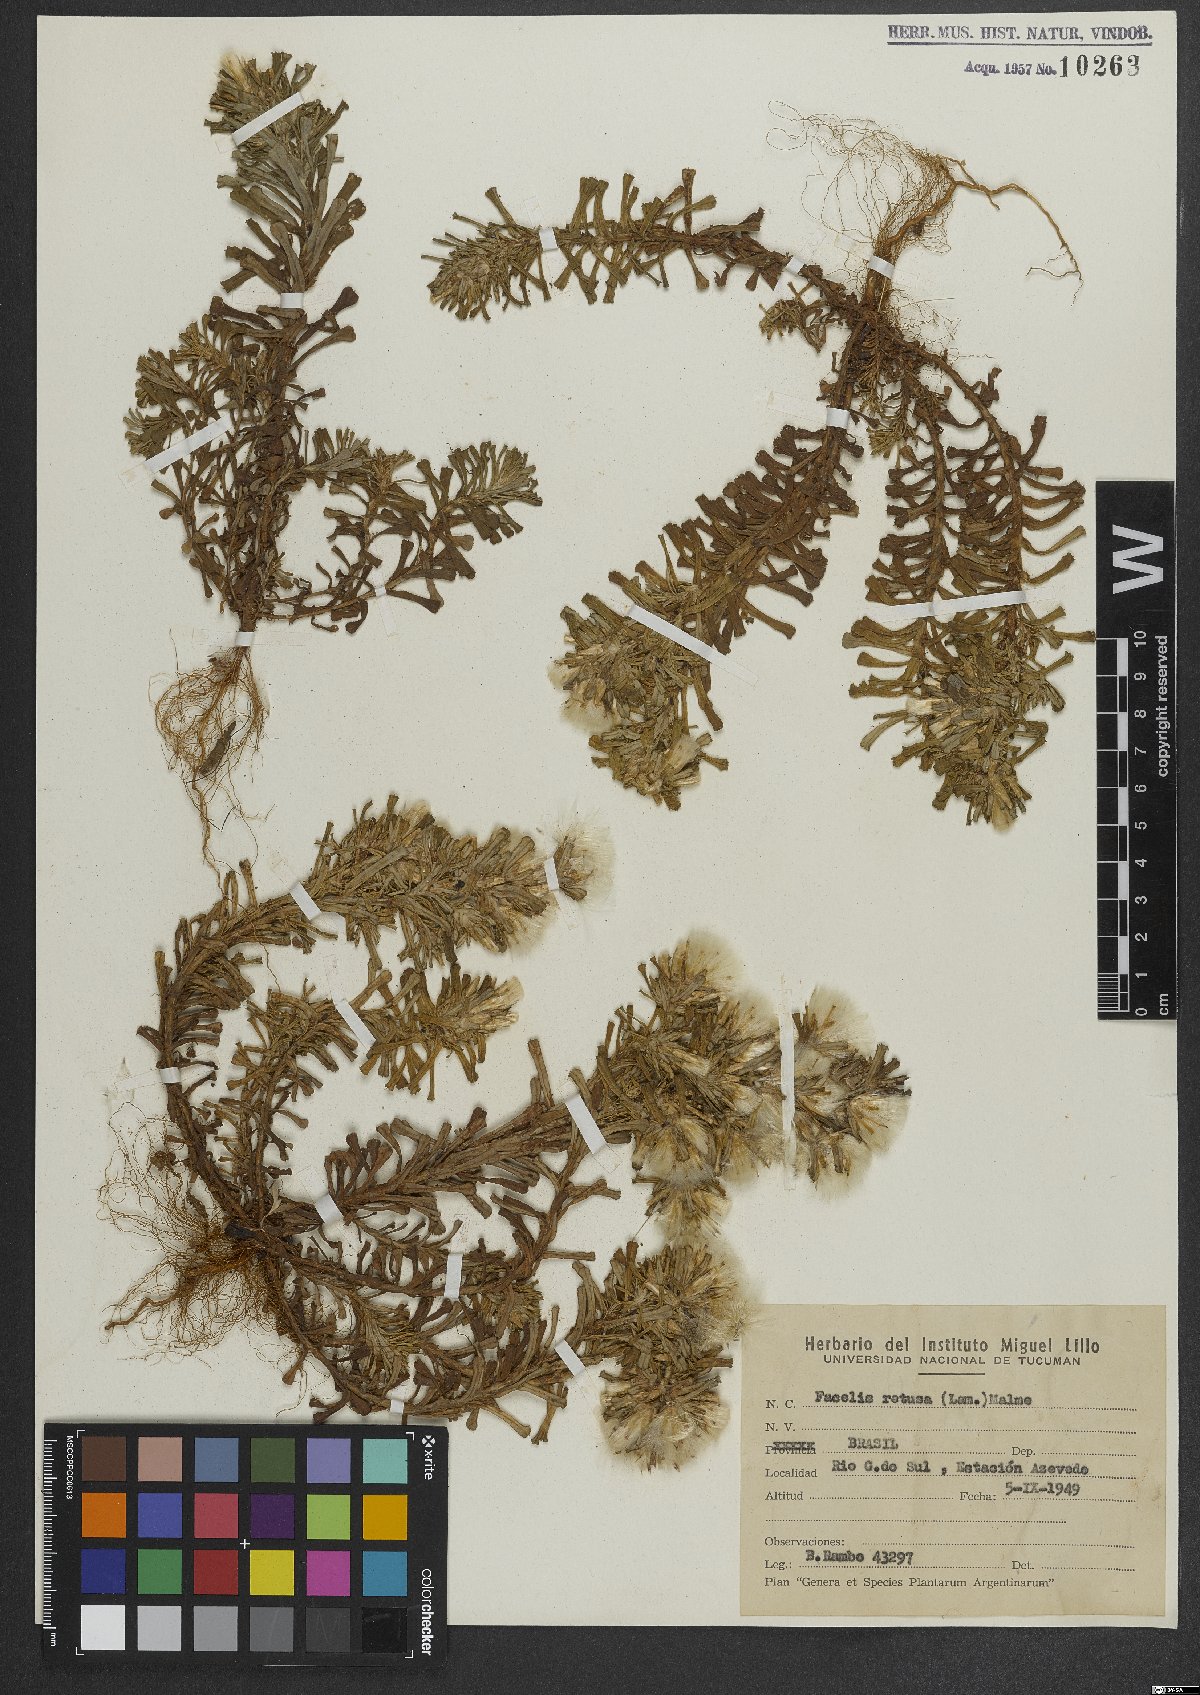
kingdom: Plantae
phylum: Tracheophyta
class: Magnoliopsida
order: Asterales
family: Asteraceae
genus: Facelis
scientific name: Facelis retusa
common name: Annual trampweed
